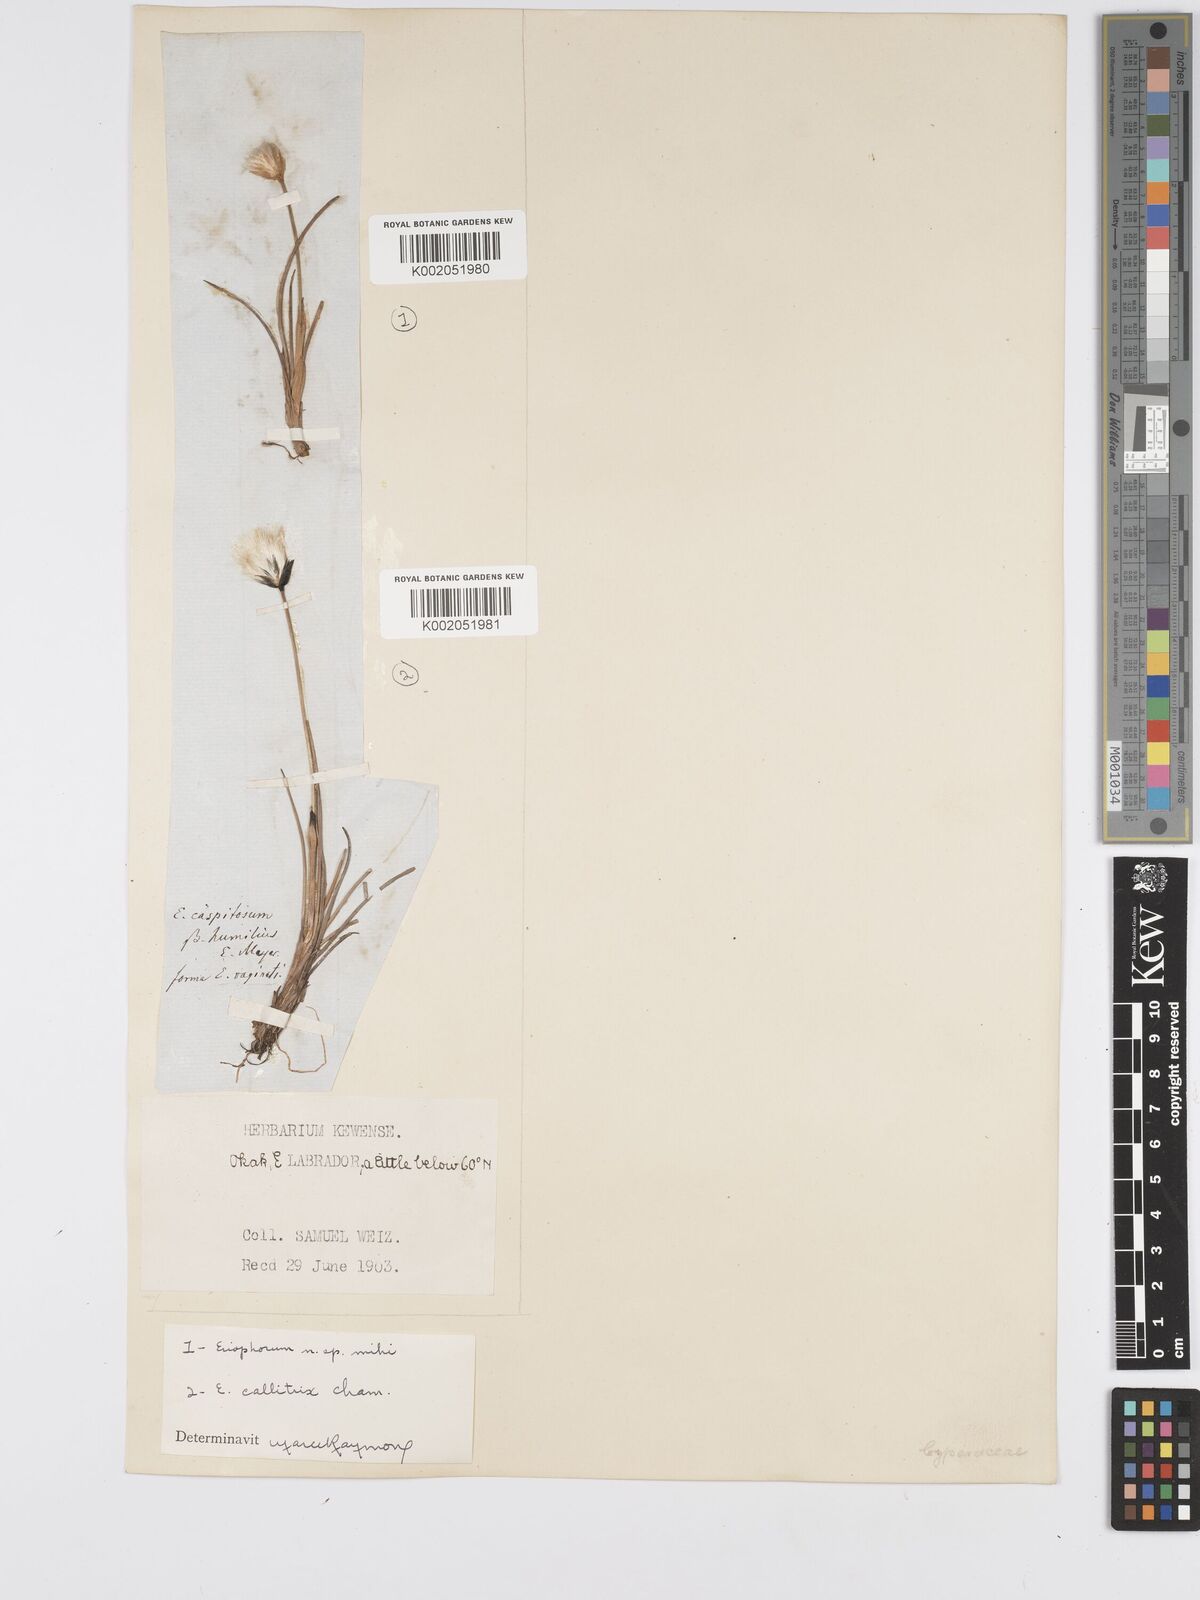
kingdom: Plantae
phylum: Tracheophyta
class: Liliopsida
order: Poales
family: Cyperaceae
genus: Eriophorum
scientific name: Eriophorum callitrix
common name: Arctic cottongrass
